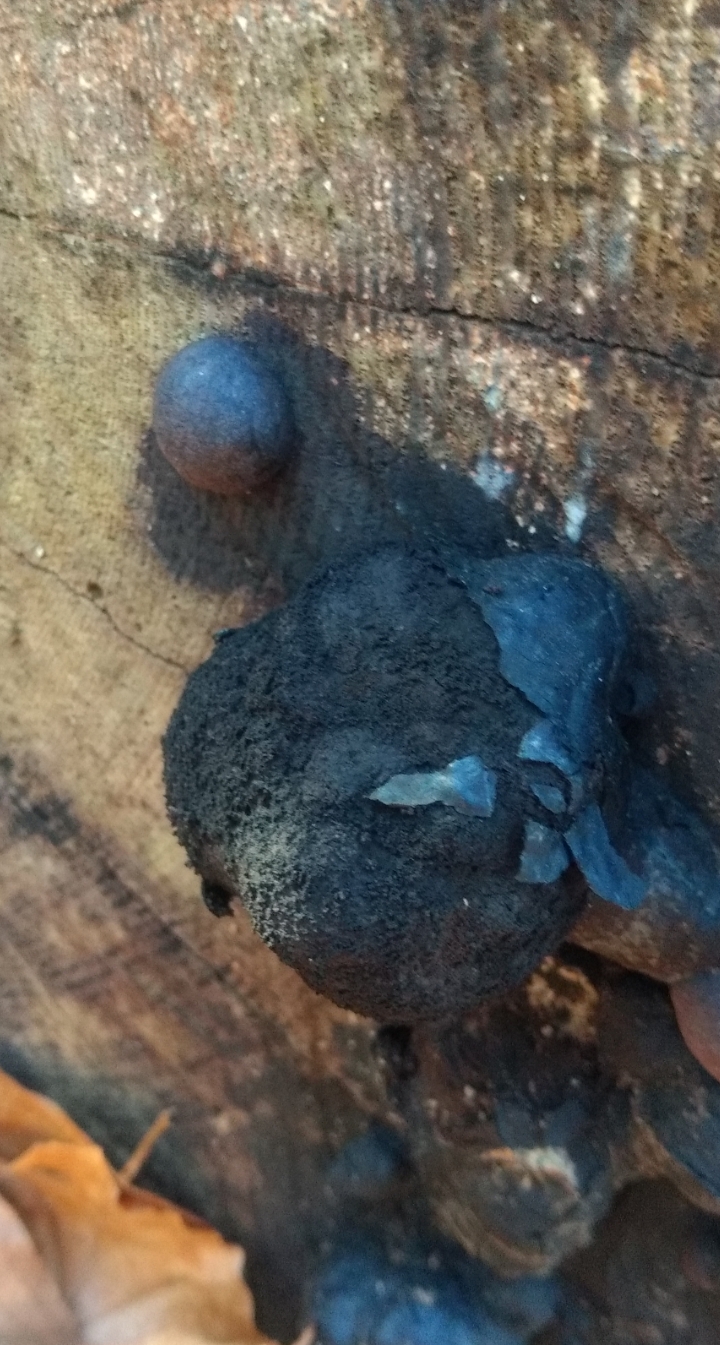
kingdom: Fungi
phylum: Ascomycota
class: Sordariomycetes
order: Xylariales
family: Hypoxylaceae
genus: Daldinia
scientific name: Daldinia concentrica
